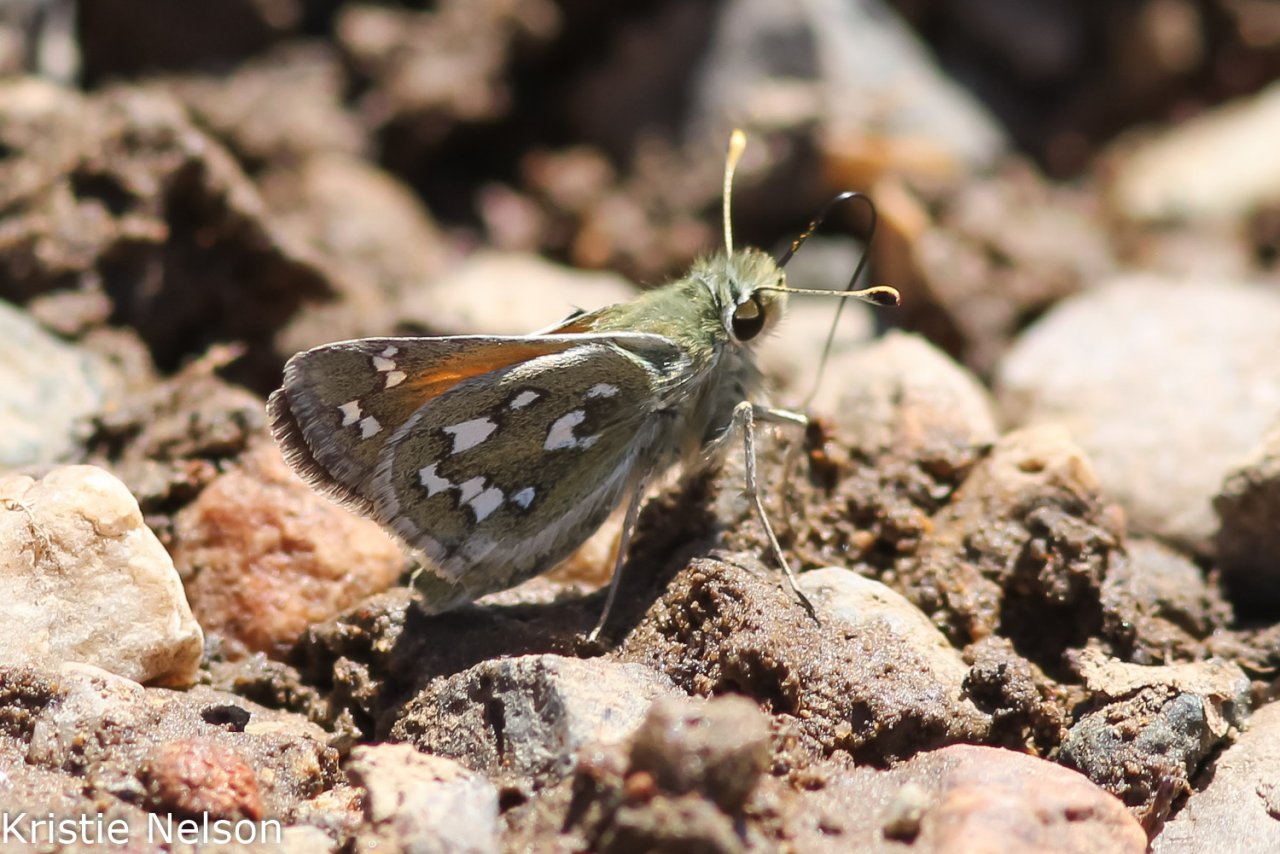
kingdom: Animalia
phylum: Arthropoda
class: Insecta
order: Lepidoptera
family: Hesperiidae
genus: Hesperia
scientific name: Hesperia nevada
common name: Nevada Skipper
